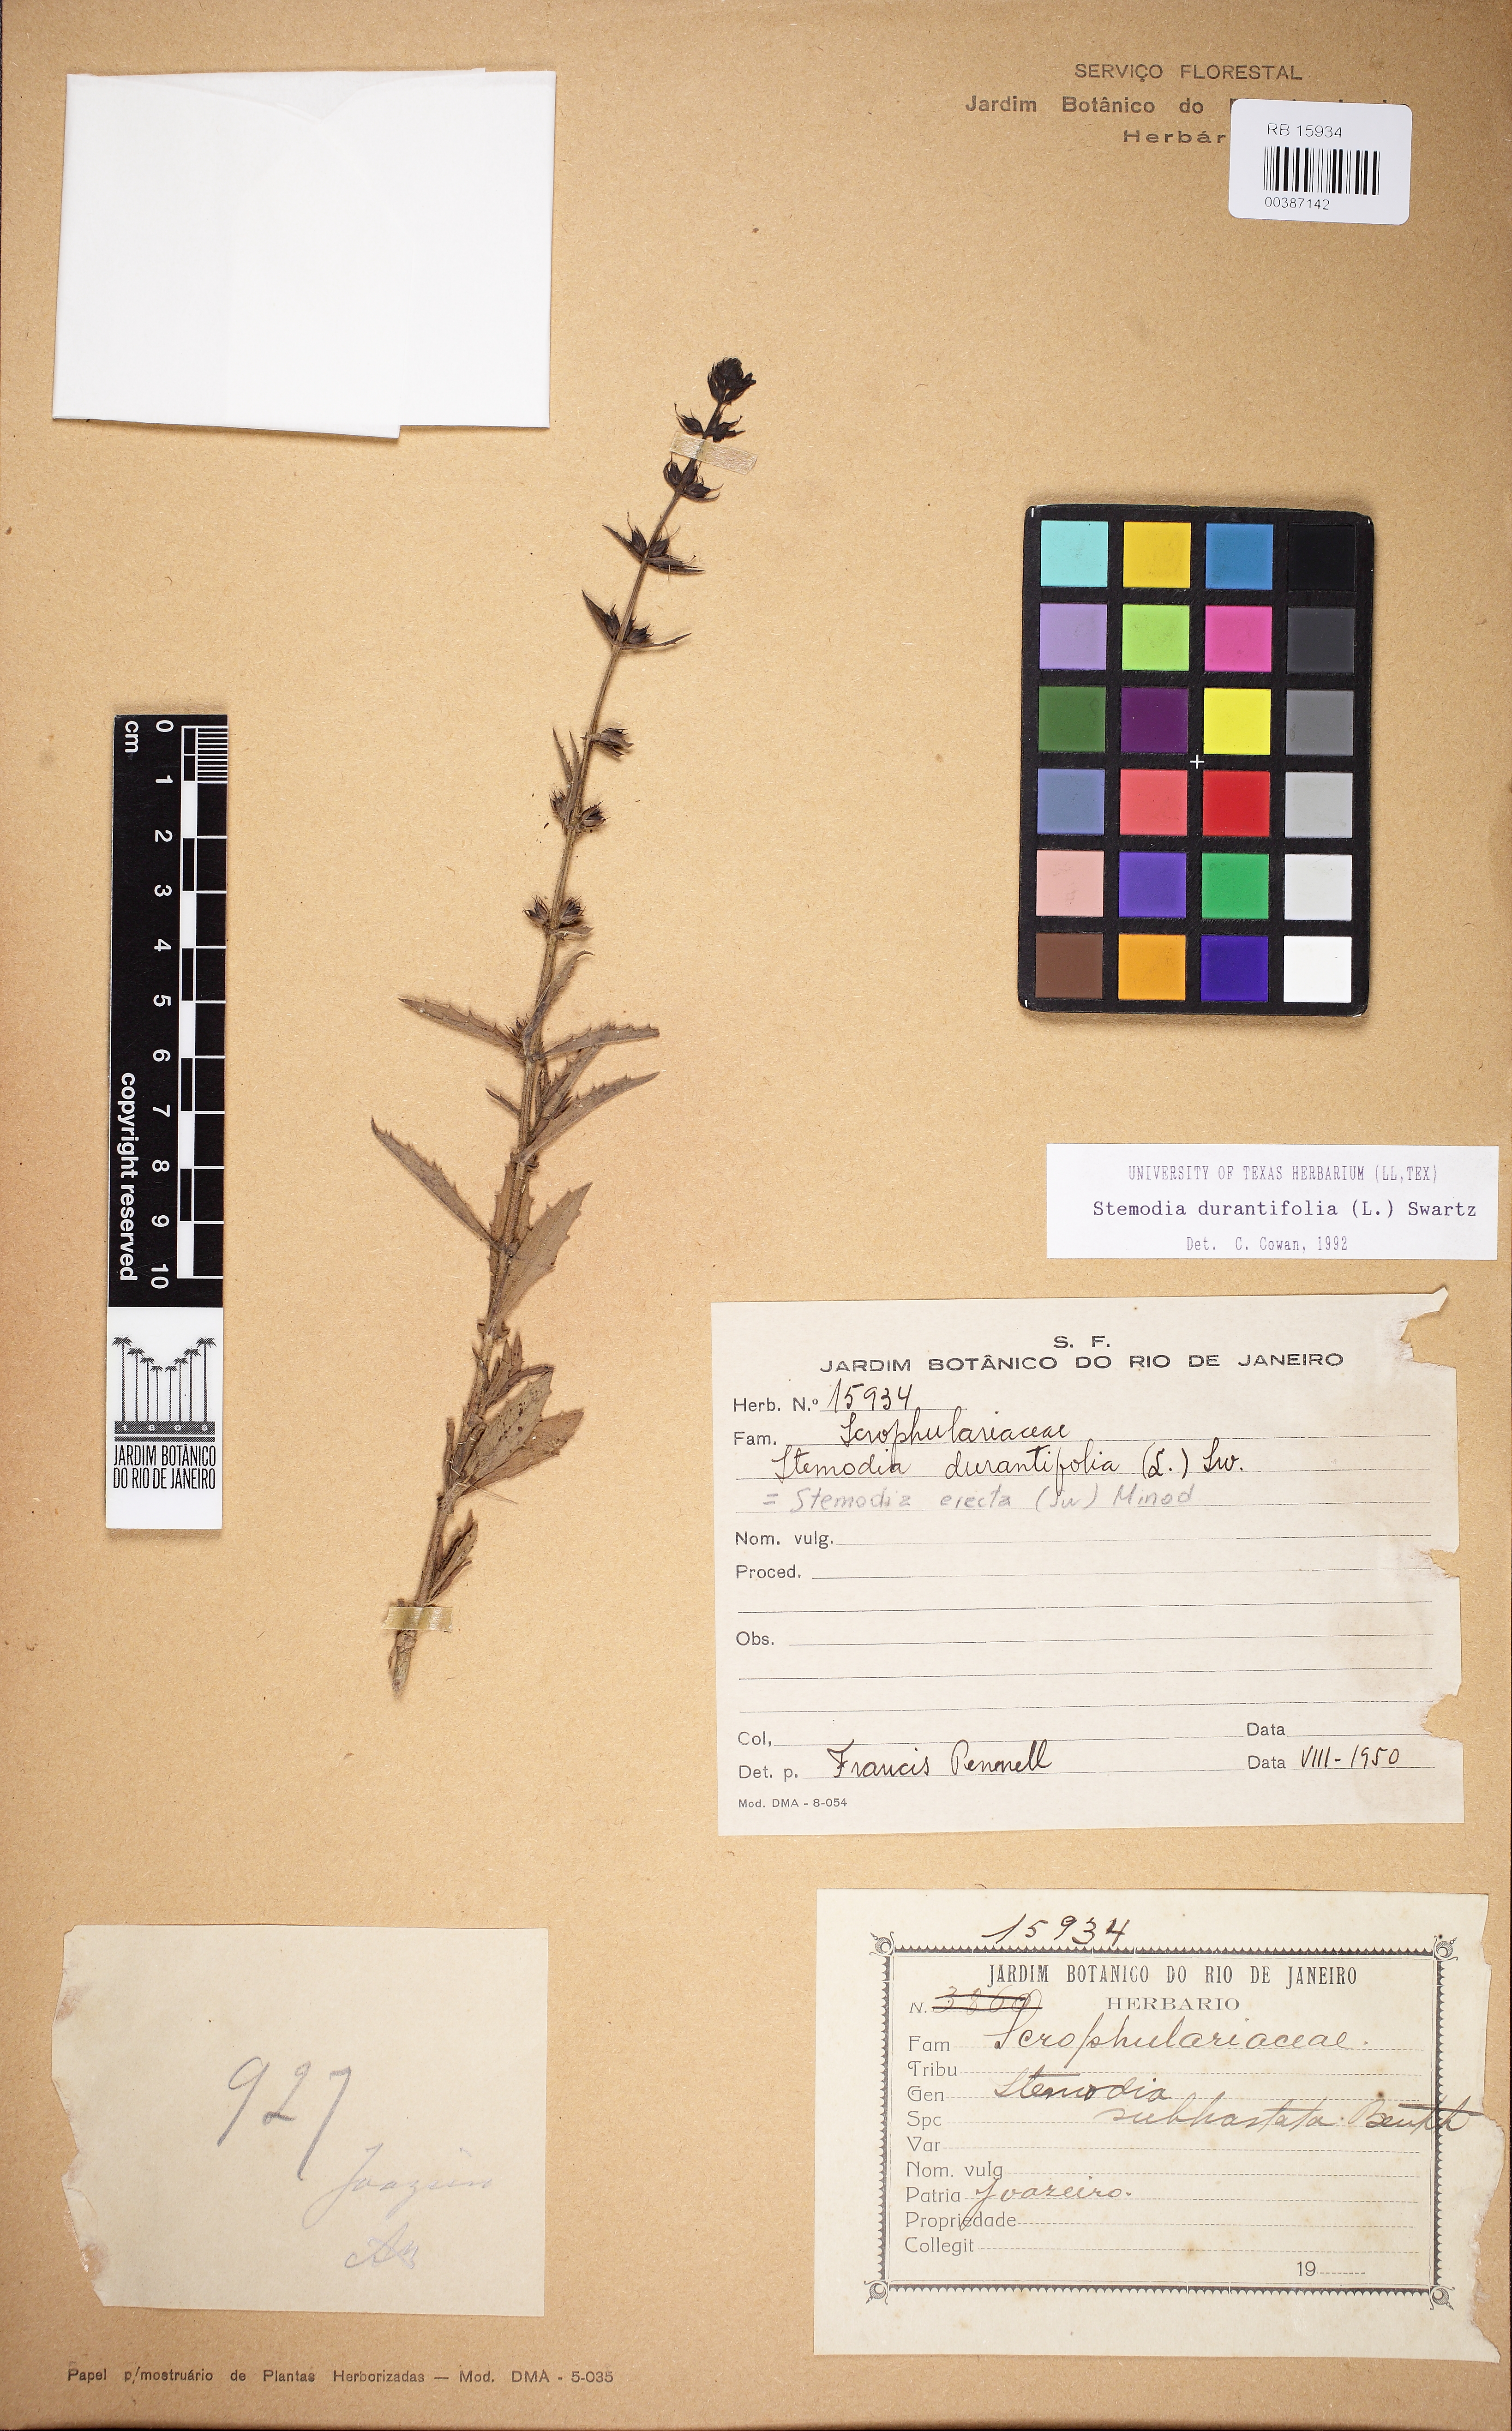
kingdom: Plantae
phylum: Tracheophyta
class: Magnoliopsida
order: Lamiales
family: Plantaginaceae
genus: Stemodia
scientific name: Stemodia durantifolia
